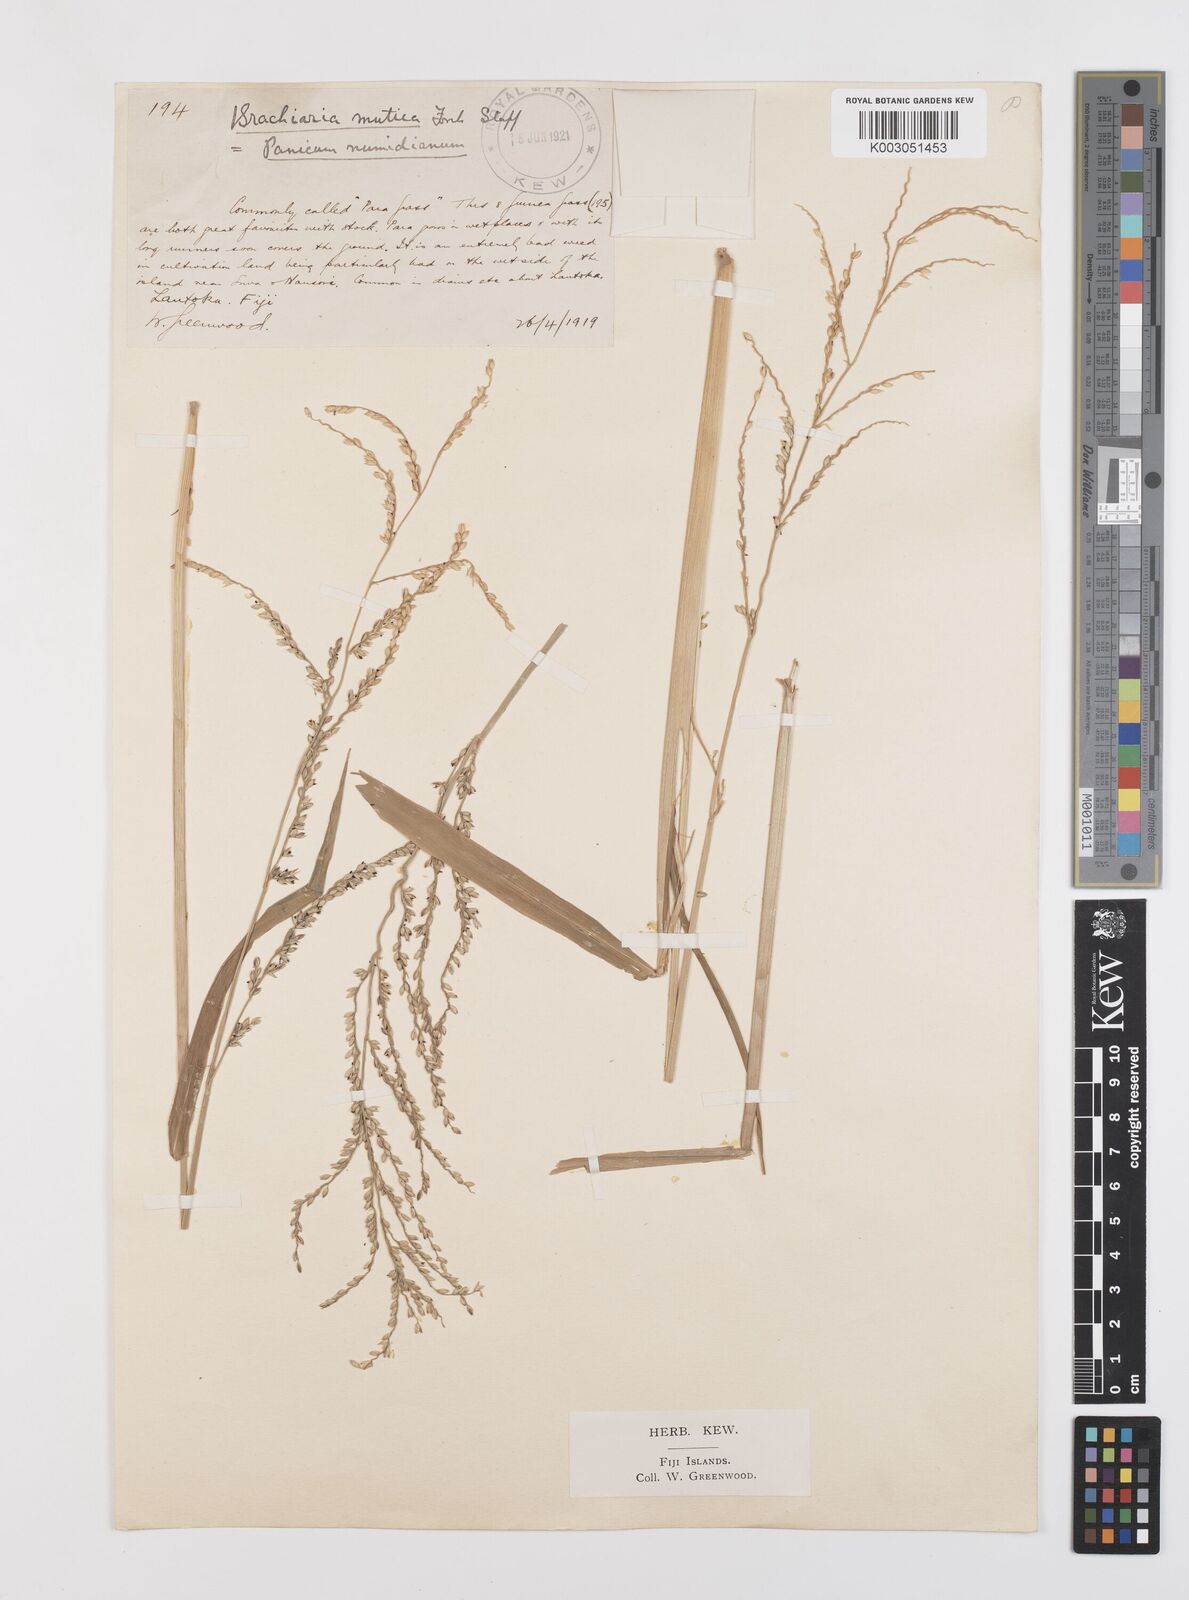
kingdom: Plantae
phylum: Tracheophyta
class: Liliopsida
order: Poales
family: Poaceae
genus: Urochloa
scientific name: Urochloa mutica
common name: Para grass
